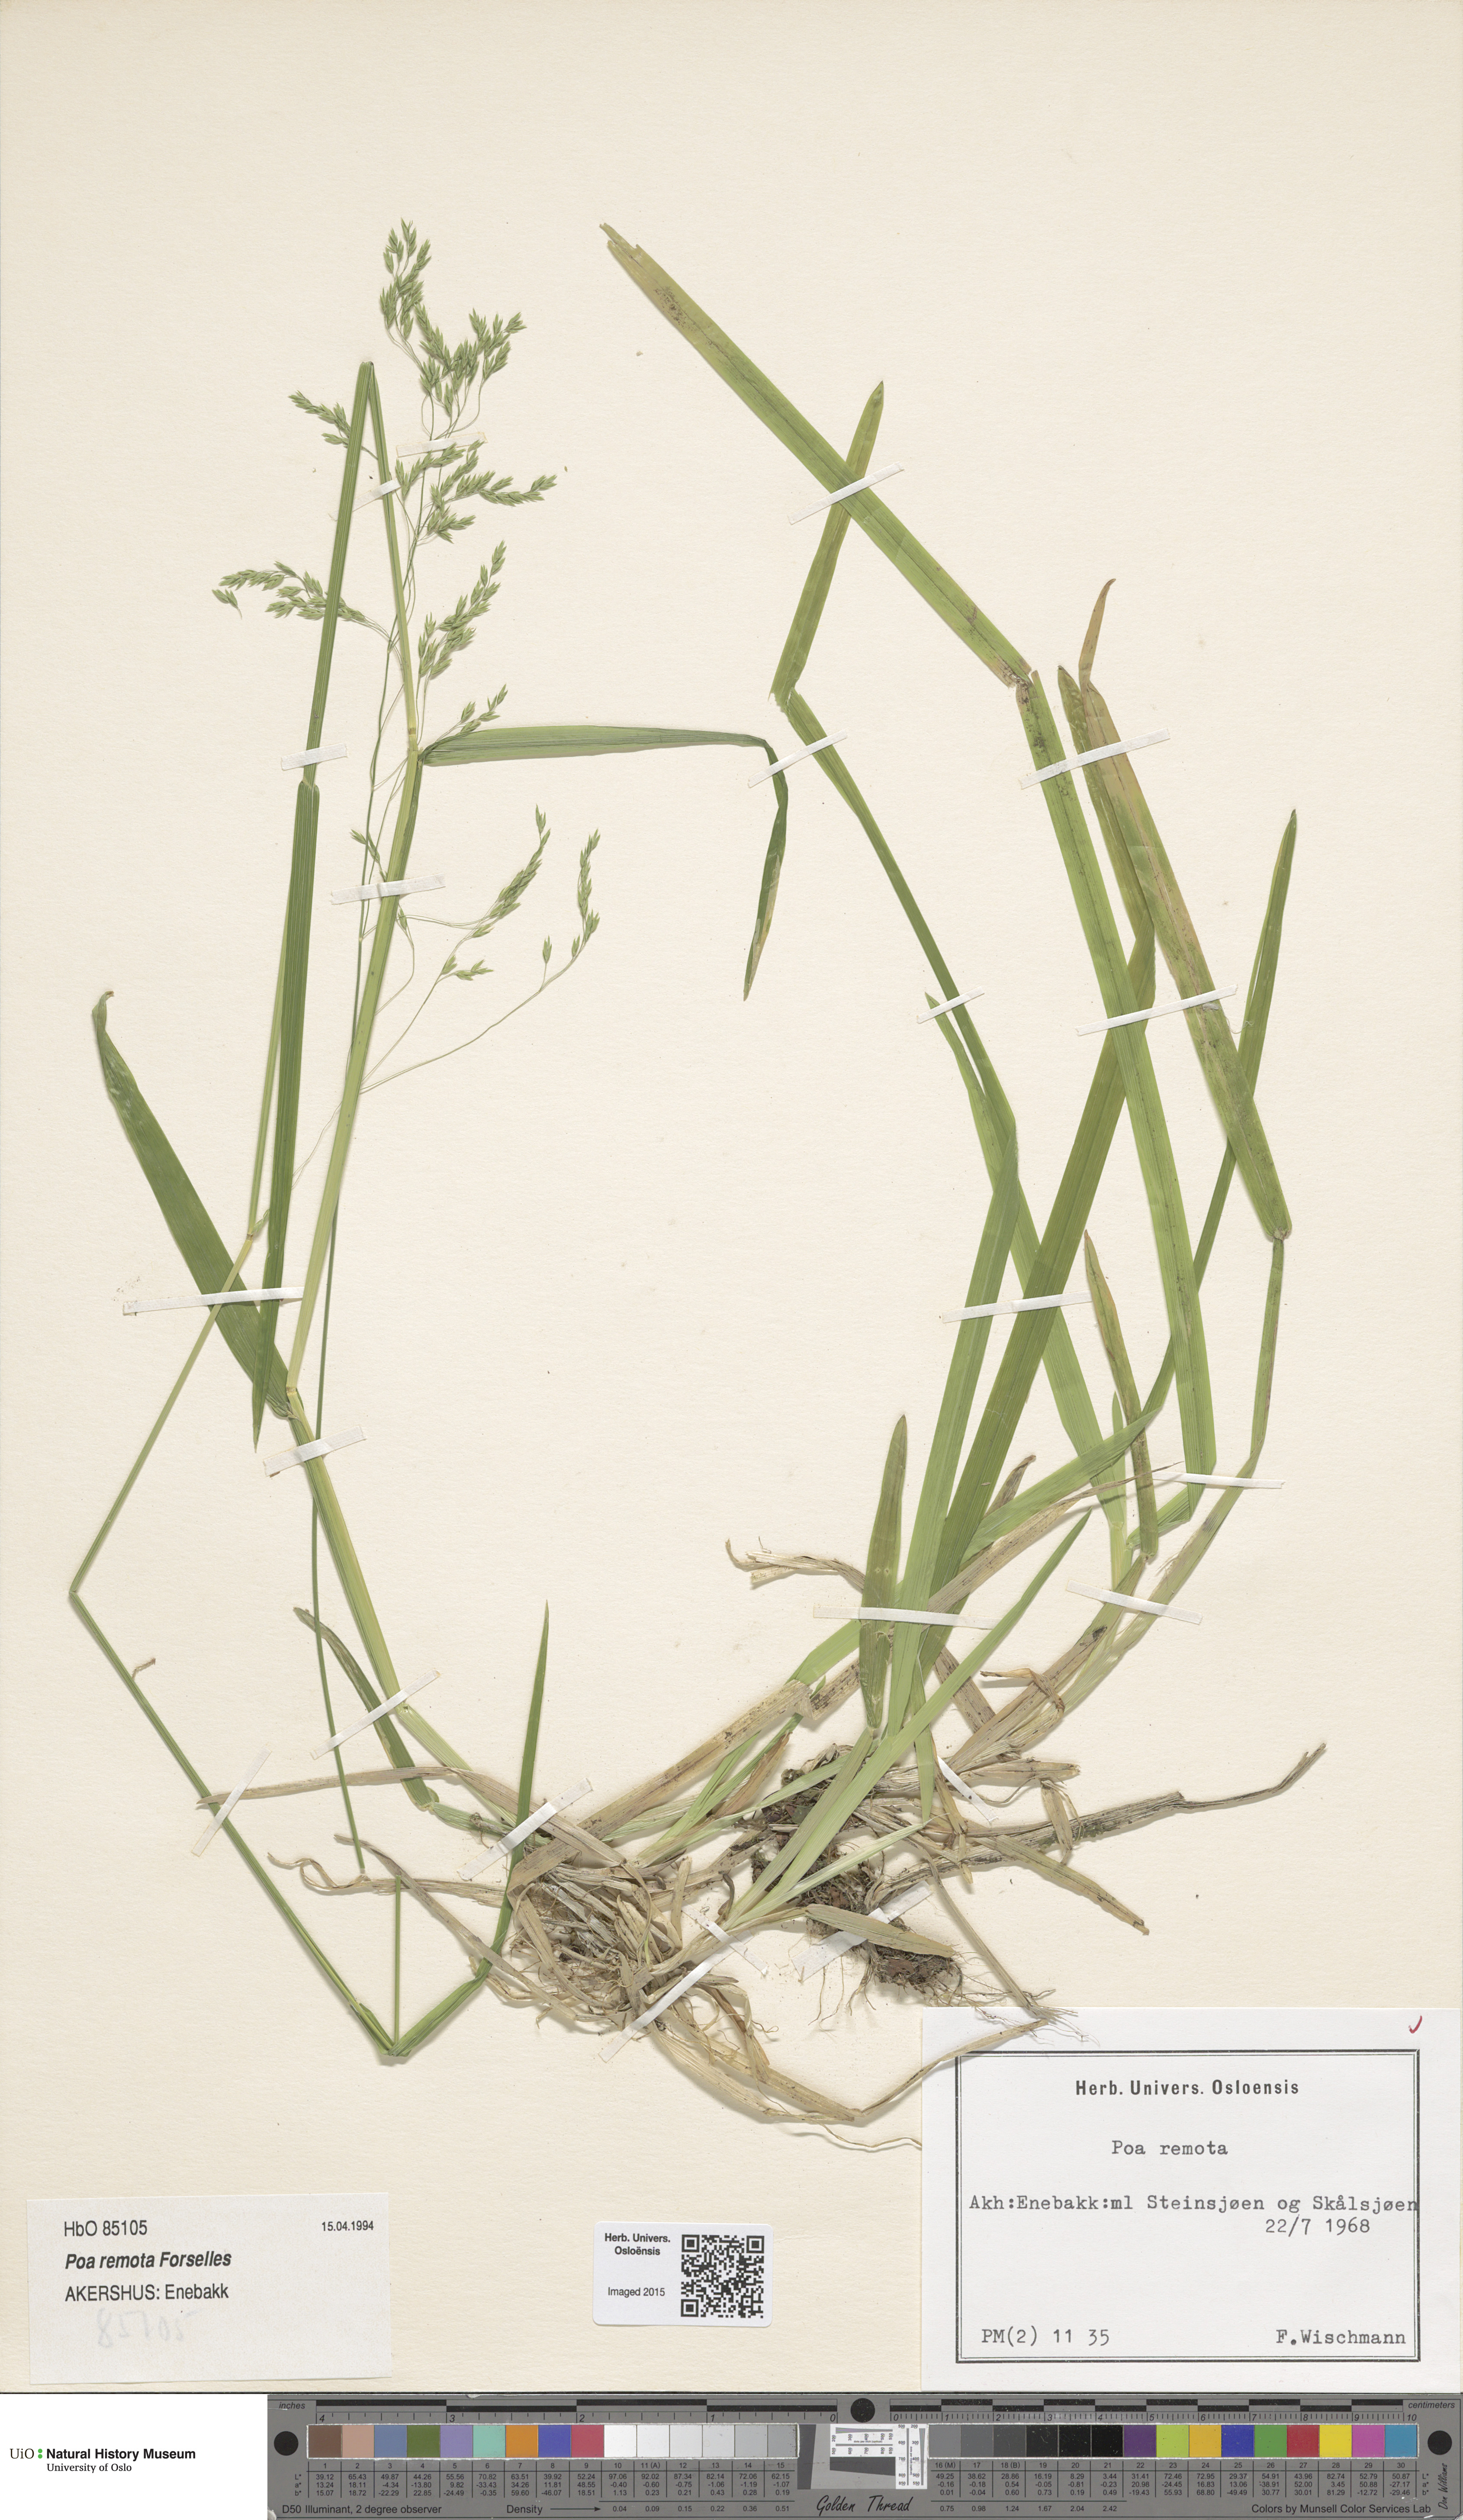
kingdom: Plantae
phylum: Tracheophyta
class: Liliopsida
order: Poales
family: Poaceae
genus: Poa
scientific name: Poa remota
